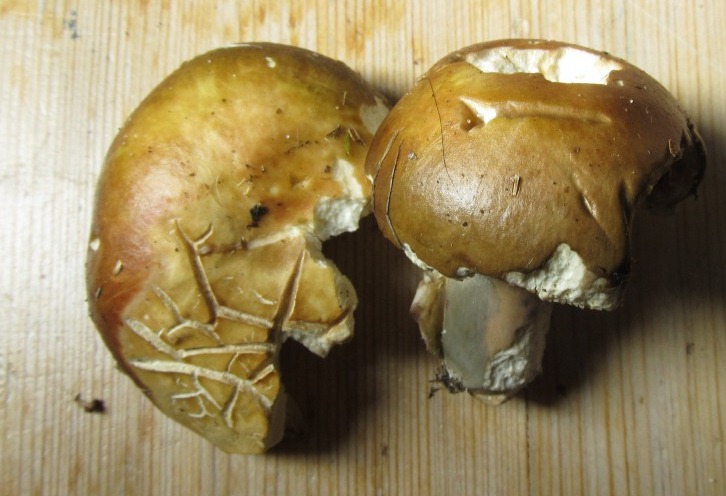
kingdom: Fungi
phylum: Basidiomycota
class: Agaricomycetes
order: Russulales
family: Russulaceae
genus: Russula
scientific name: Russula clavipes
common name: olivengrøn skørhat
